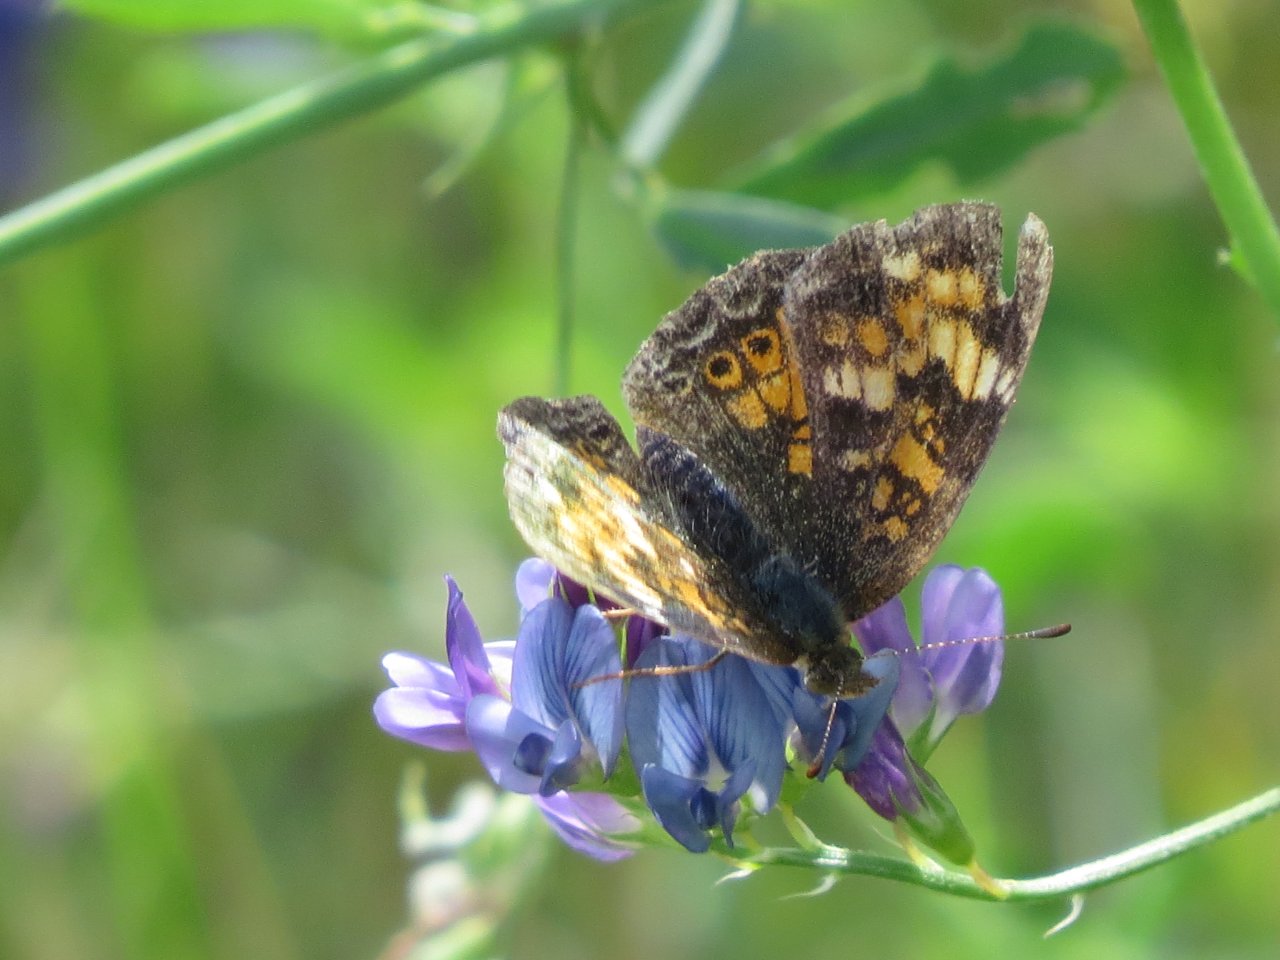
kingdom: Animalia
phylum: Arthropoda
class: Insecta
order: Lepidoptera
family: Nymphalidae
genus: Phyciodes
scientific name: Phyciodes tharos
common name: Northern Crescent
